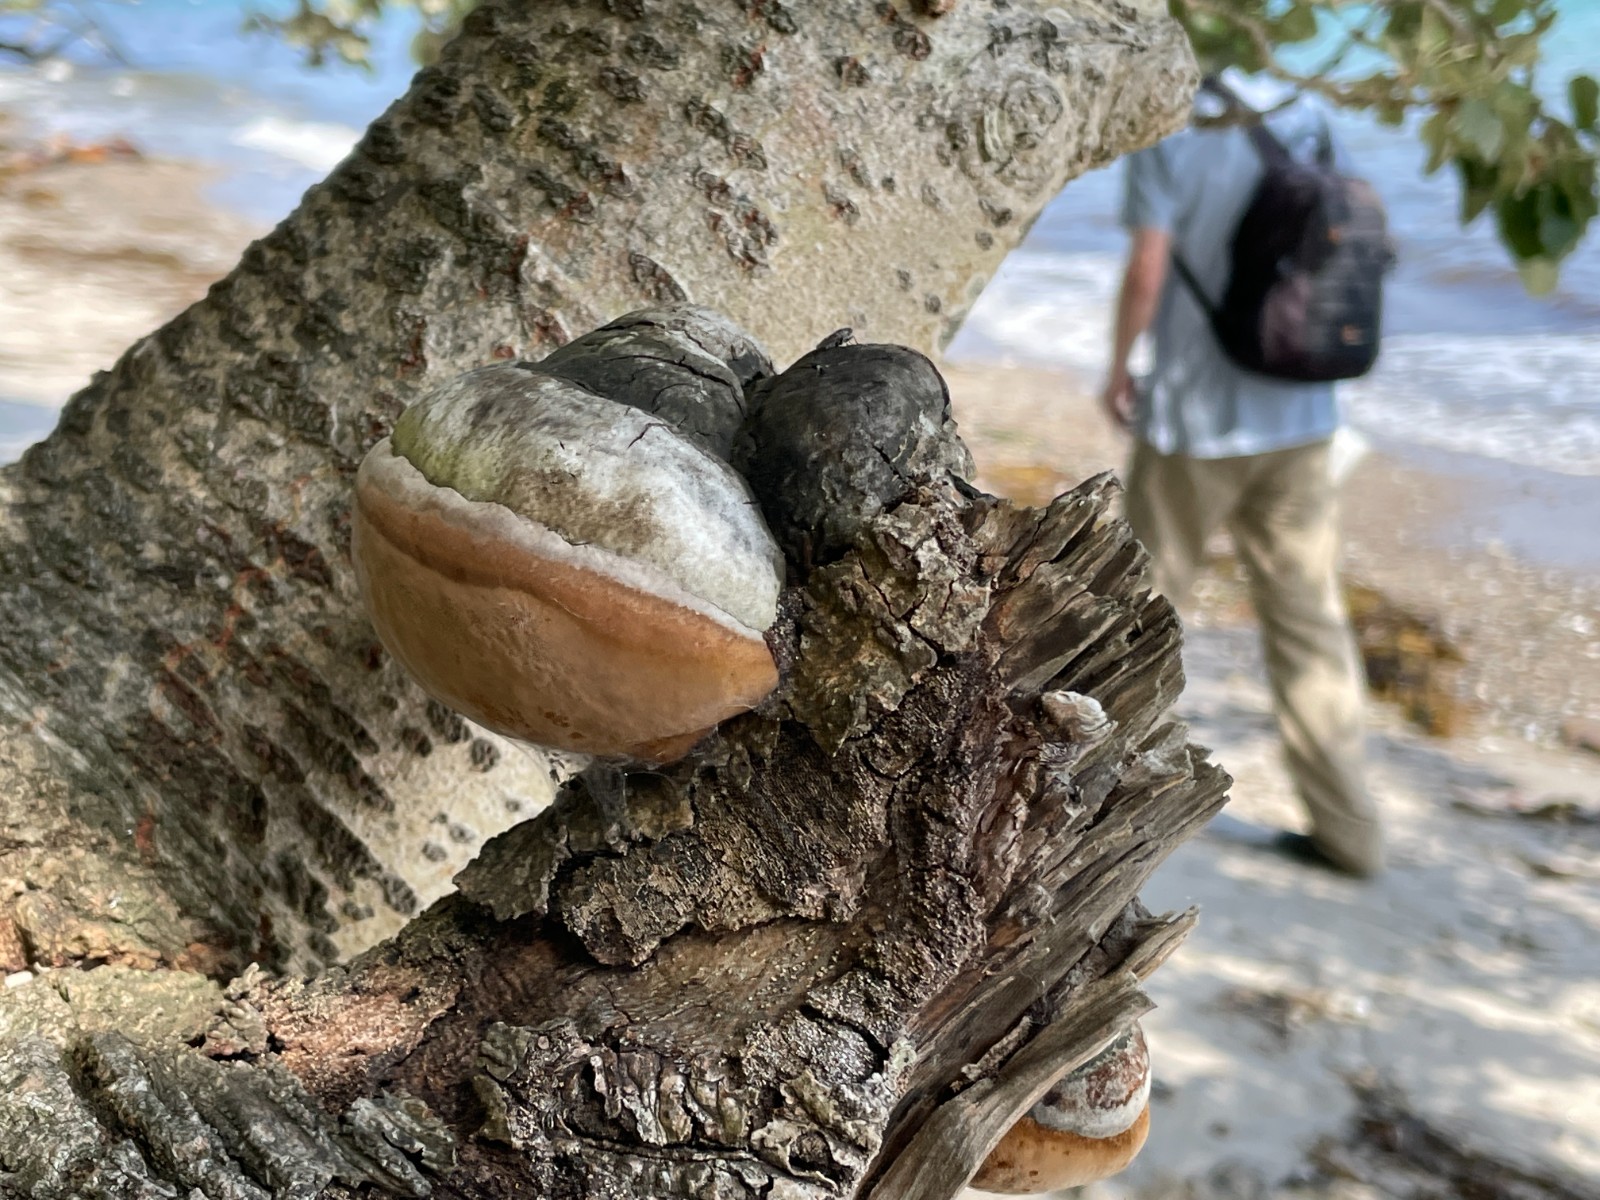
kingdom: Fungi
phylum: Basidiomycota
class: Agaricomycetes
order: Hymenochaetales
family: Hymenochaetaceae
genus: Phellinus
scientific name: Phellinus populicola
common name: poppel-ildporesvamp
